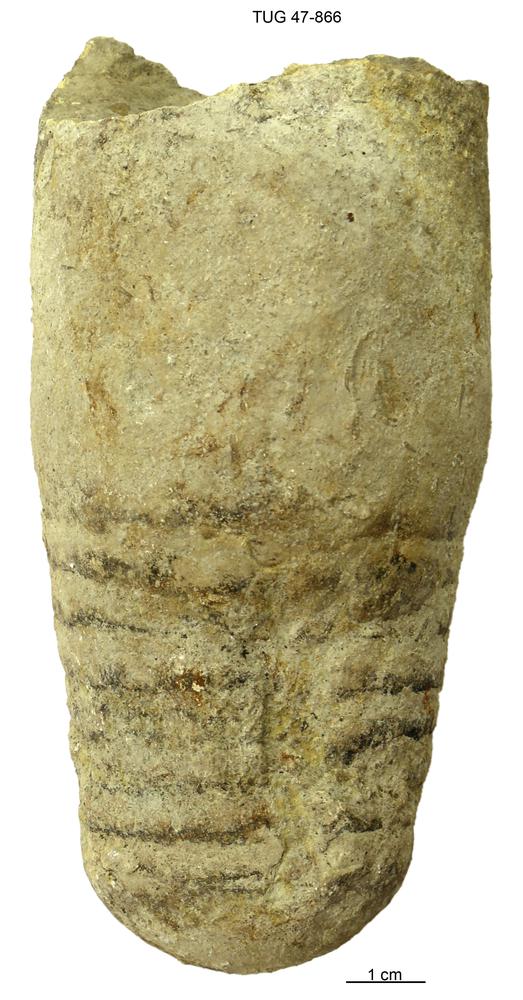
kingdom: Animalia
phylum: Mollusca
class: Cephalopoda
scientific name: Cephalopoda
